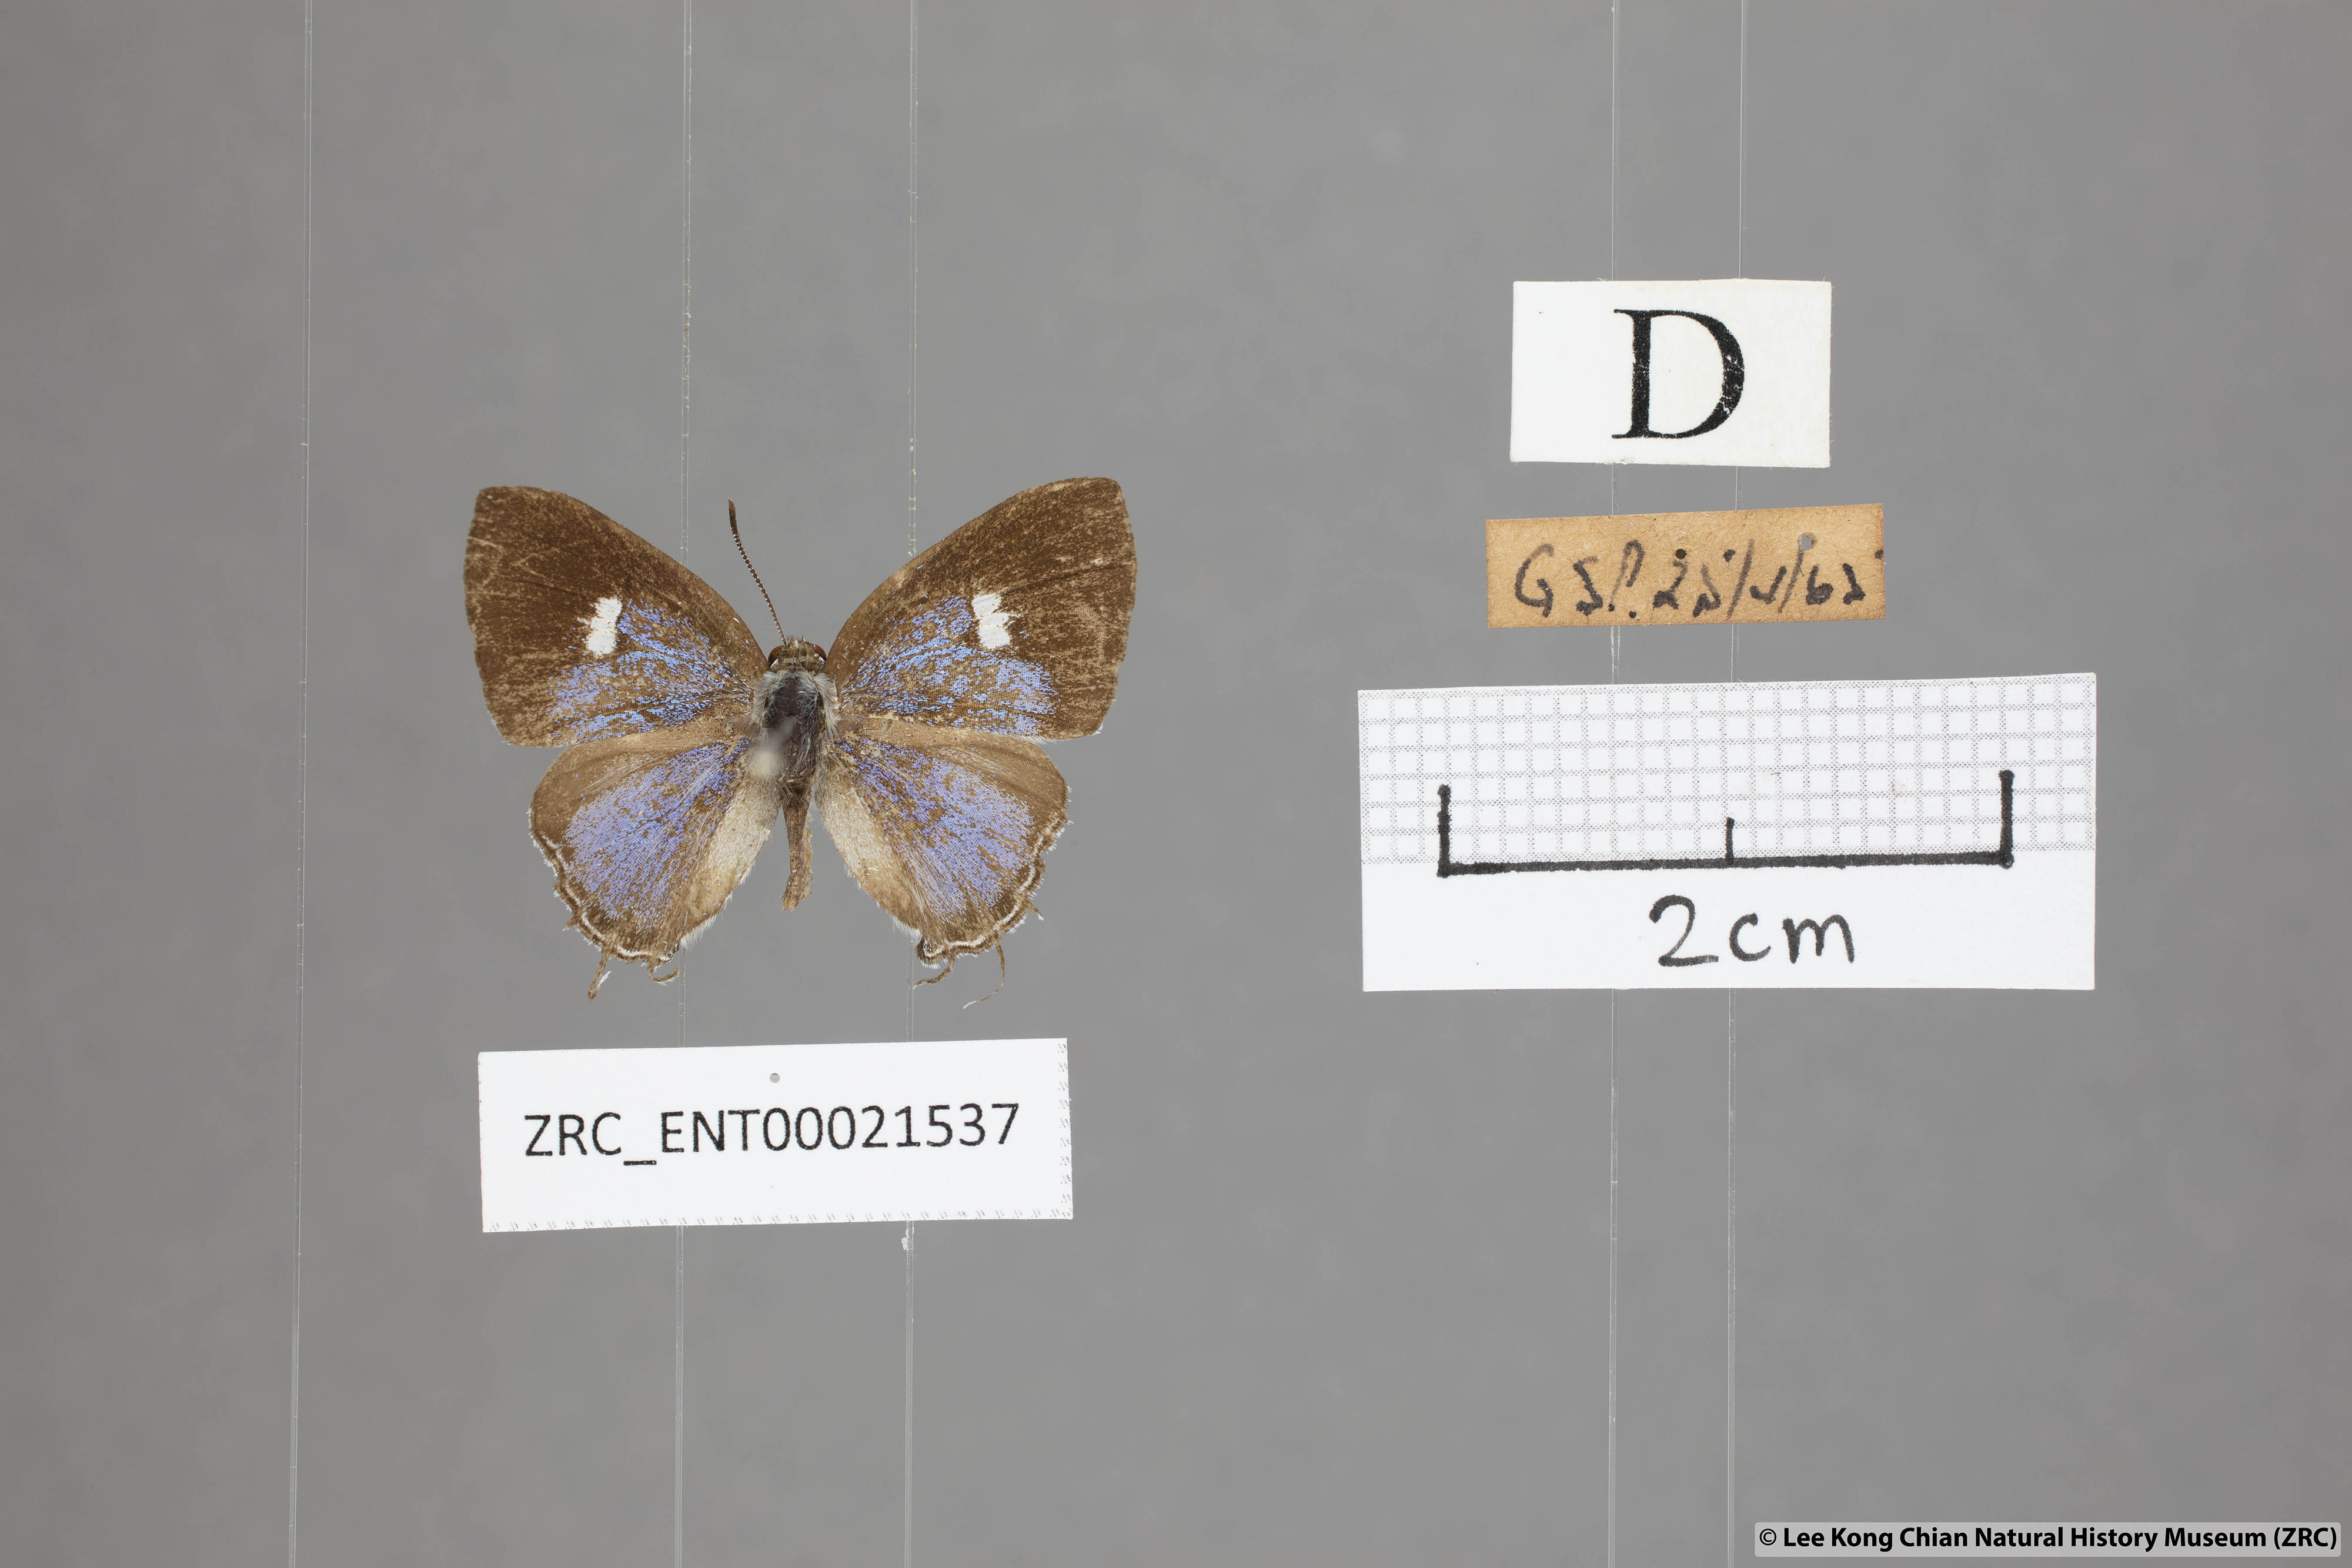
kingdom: Animalia
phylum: Arthropoda
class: Insecta
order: Lepidoptera
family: Lycaenidae
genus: Horaga
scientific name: Horaga syrinx
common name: Ambon onyx
